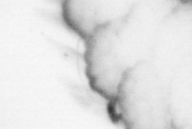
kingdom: Animalia
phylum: Arthropoda
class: Copepoda
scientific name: Copepoda
